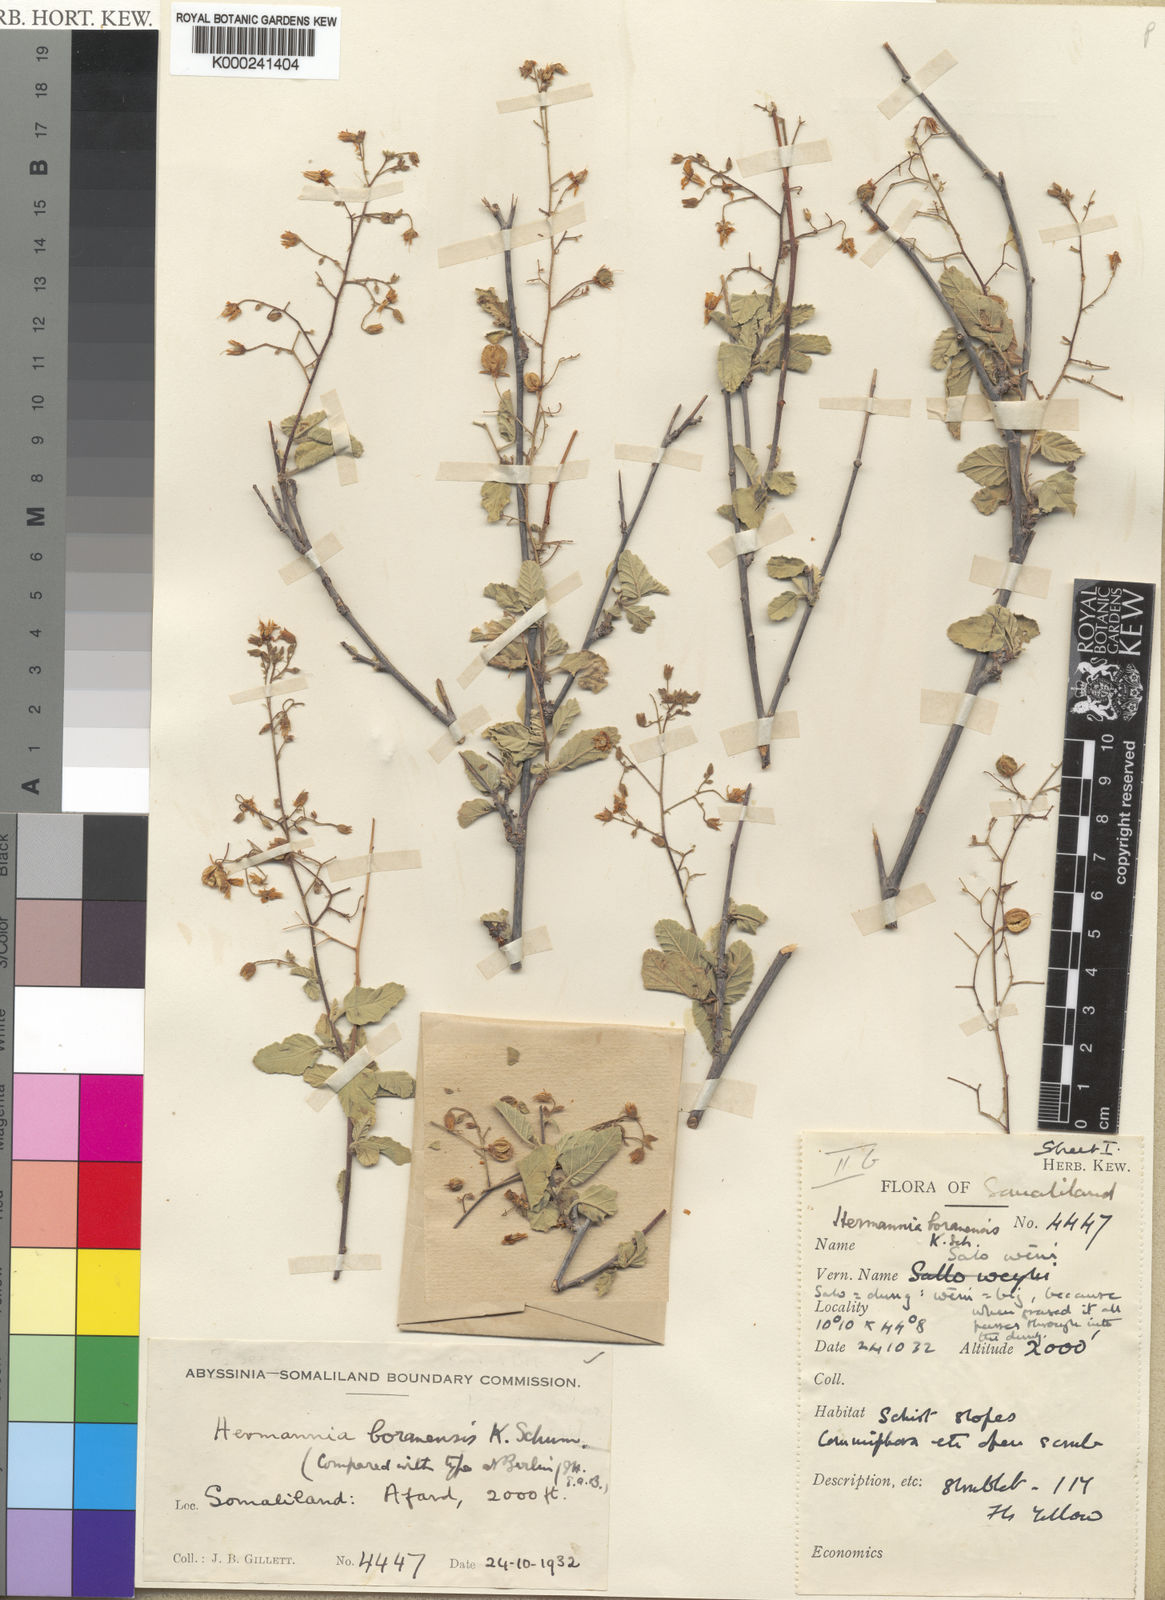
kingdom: Plantae
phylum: Tracheophyta
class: Magnoliopsida
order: Malvales
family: Malvaceae
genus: Hermannia
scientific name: Hermannia boranensis
